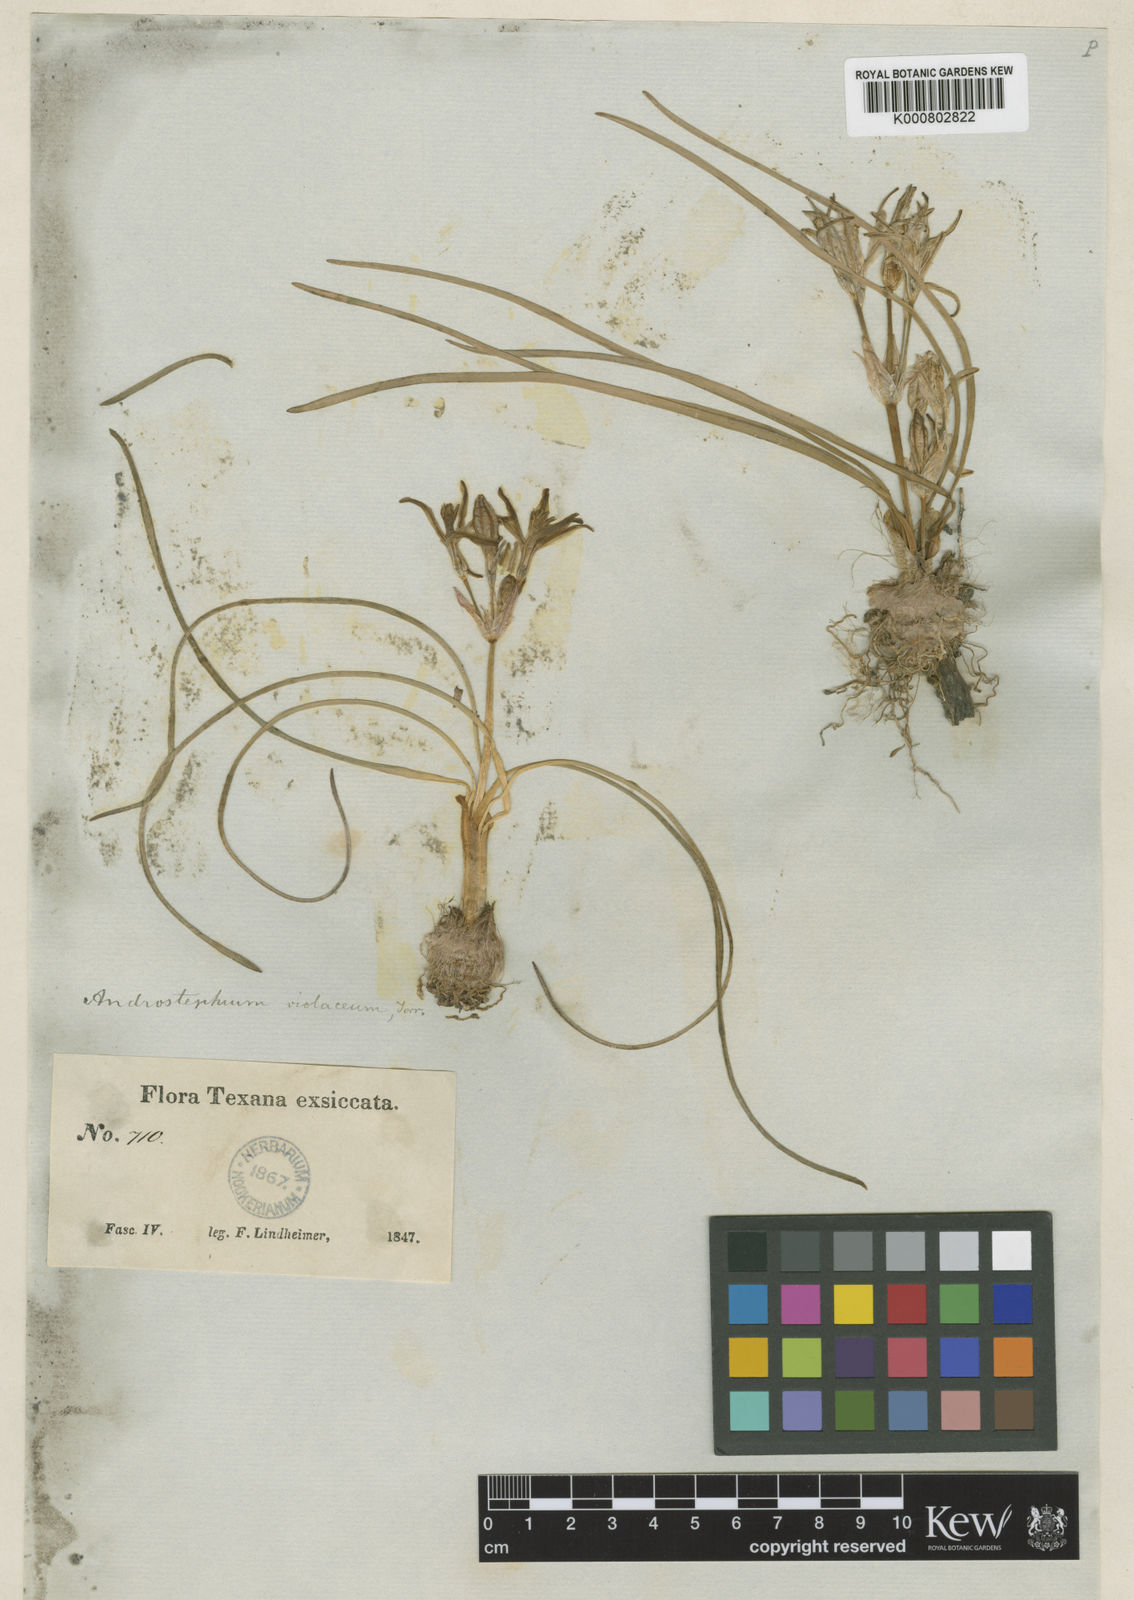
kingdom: Plantae
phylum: Tracheophyta
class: Liliopsida
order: Asparagales
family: Asparagaceae
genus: Androstephium
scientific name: Androstephium
